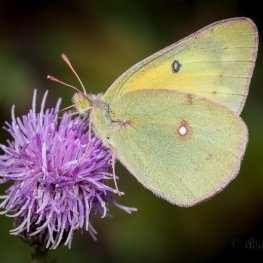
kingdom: Animalia
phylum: Arthropoda
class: Insecta
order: Lepidoptera
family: Pieridae
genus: Colias
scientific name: Colias eurytheme
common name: Orange Sulphur
